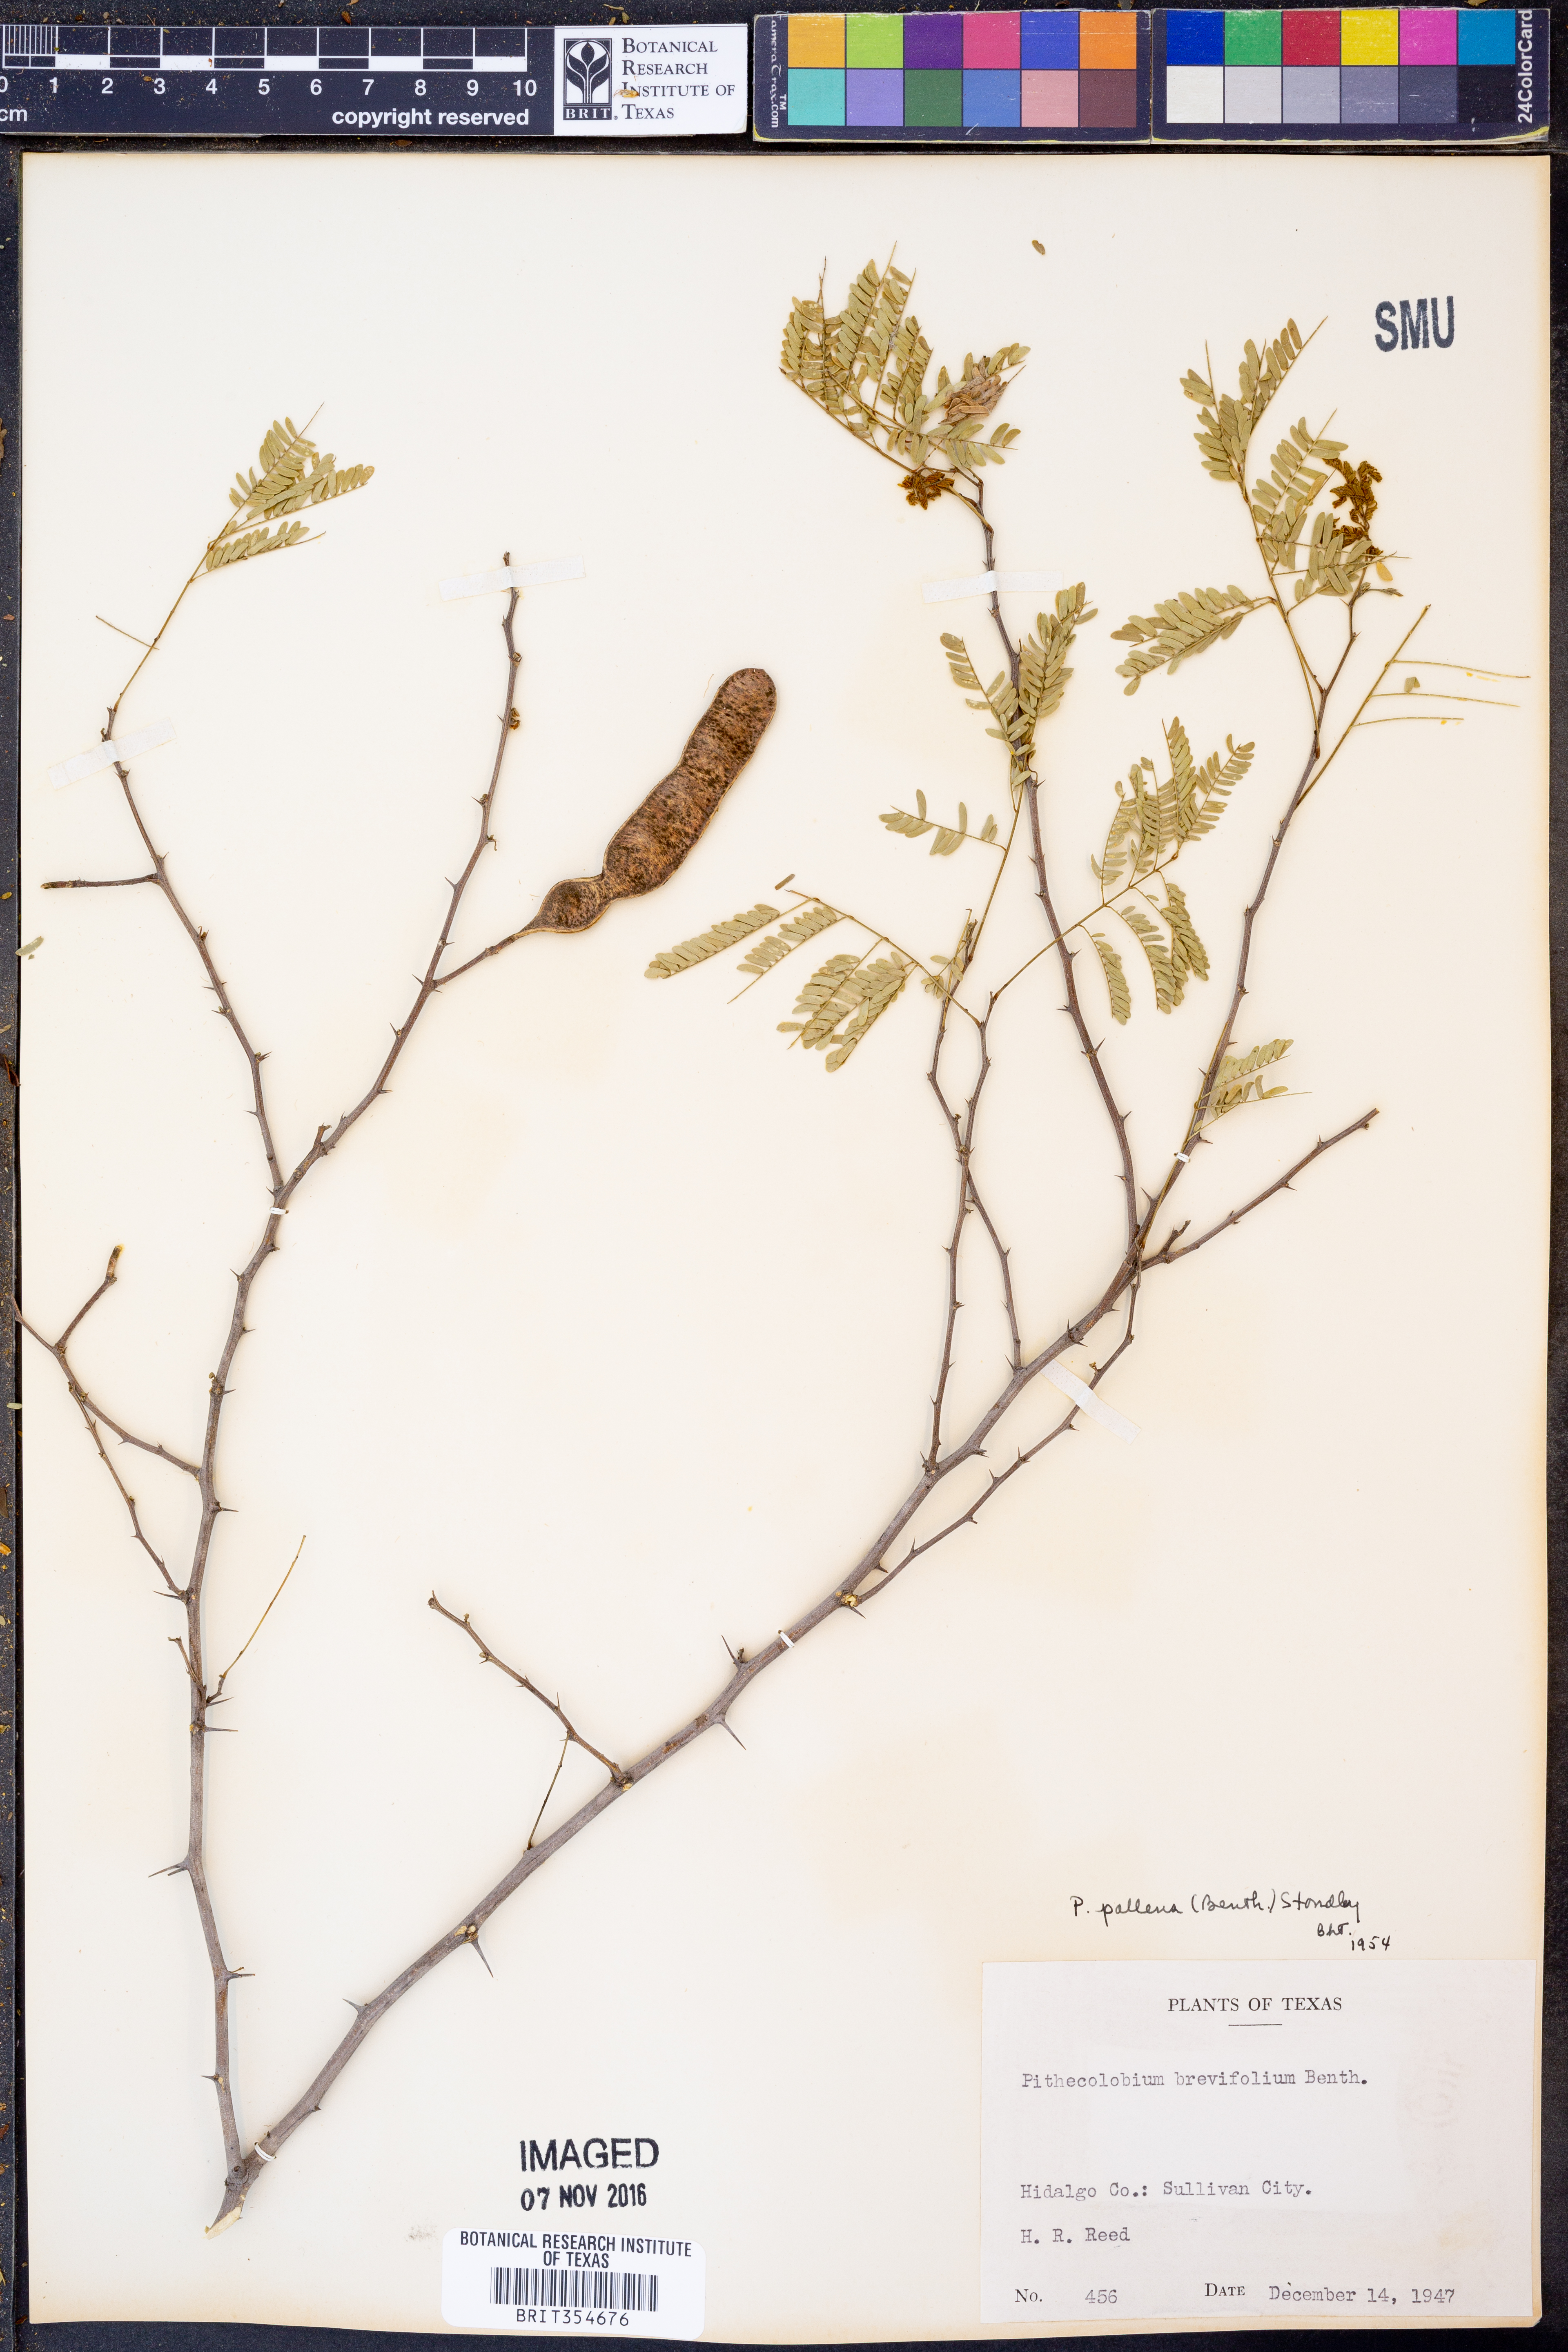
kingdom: Plantae
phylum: Tracheophyta
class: Magnoliopsida
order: Fabales
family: Fabaceae
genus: Havardia
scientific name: Havardia pallens
